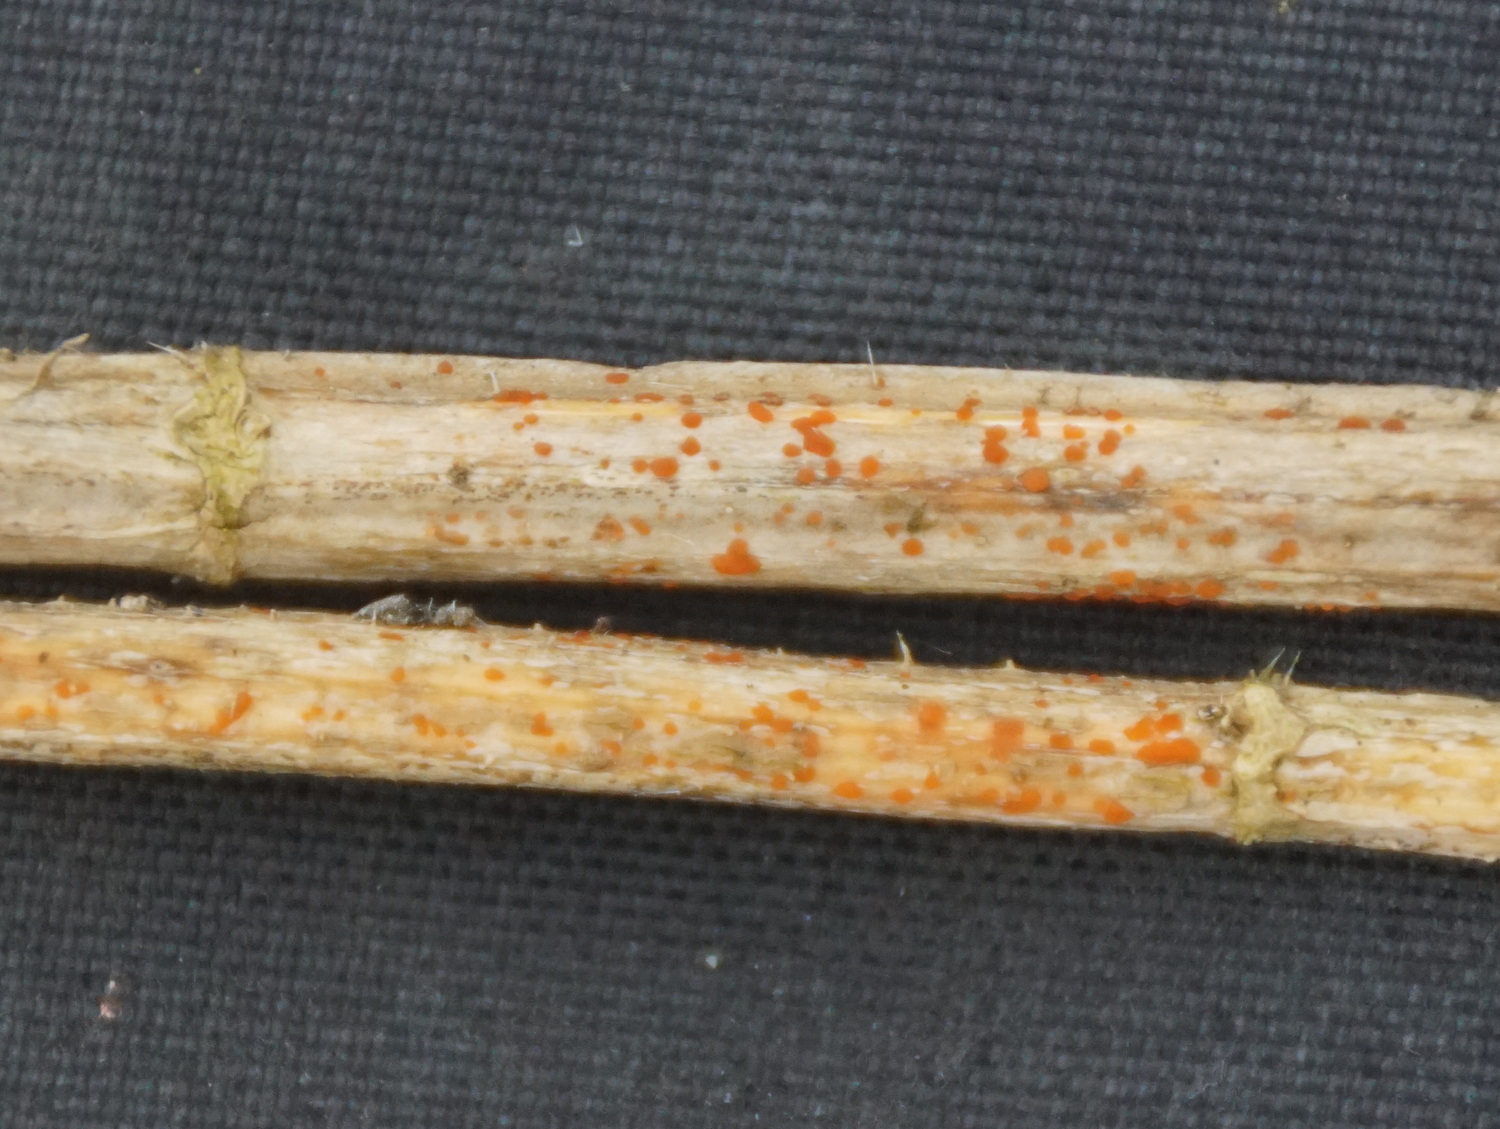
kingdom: Fungi
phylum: Ascomycota
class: Leotiomycetes
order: Helotiales
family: Calloriaceae
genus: Calloria
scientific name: Calloria urticae
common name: nælde-orangeskive
